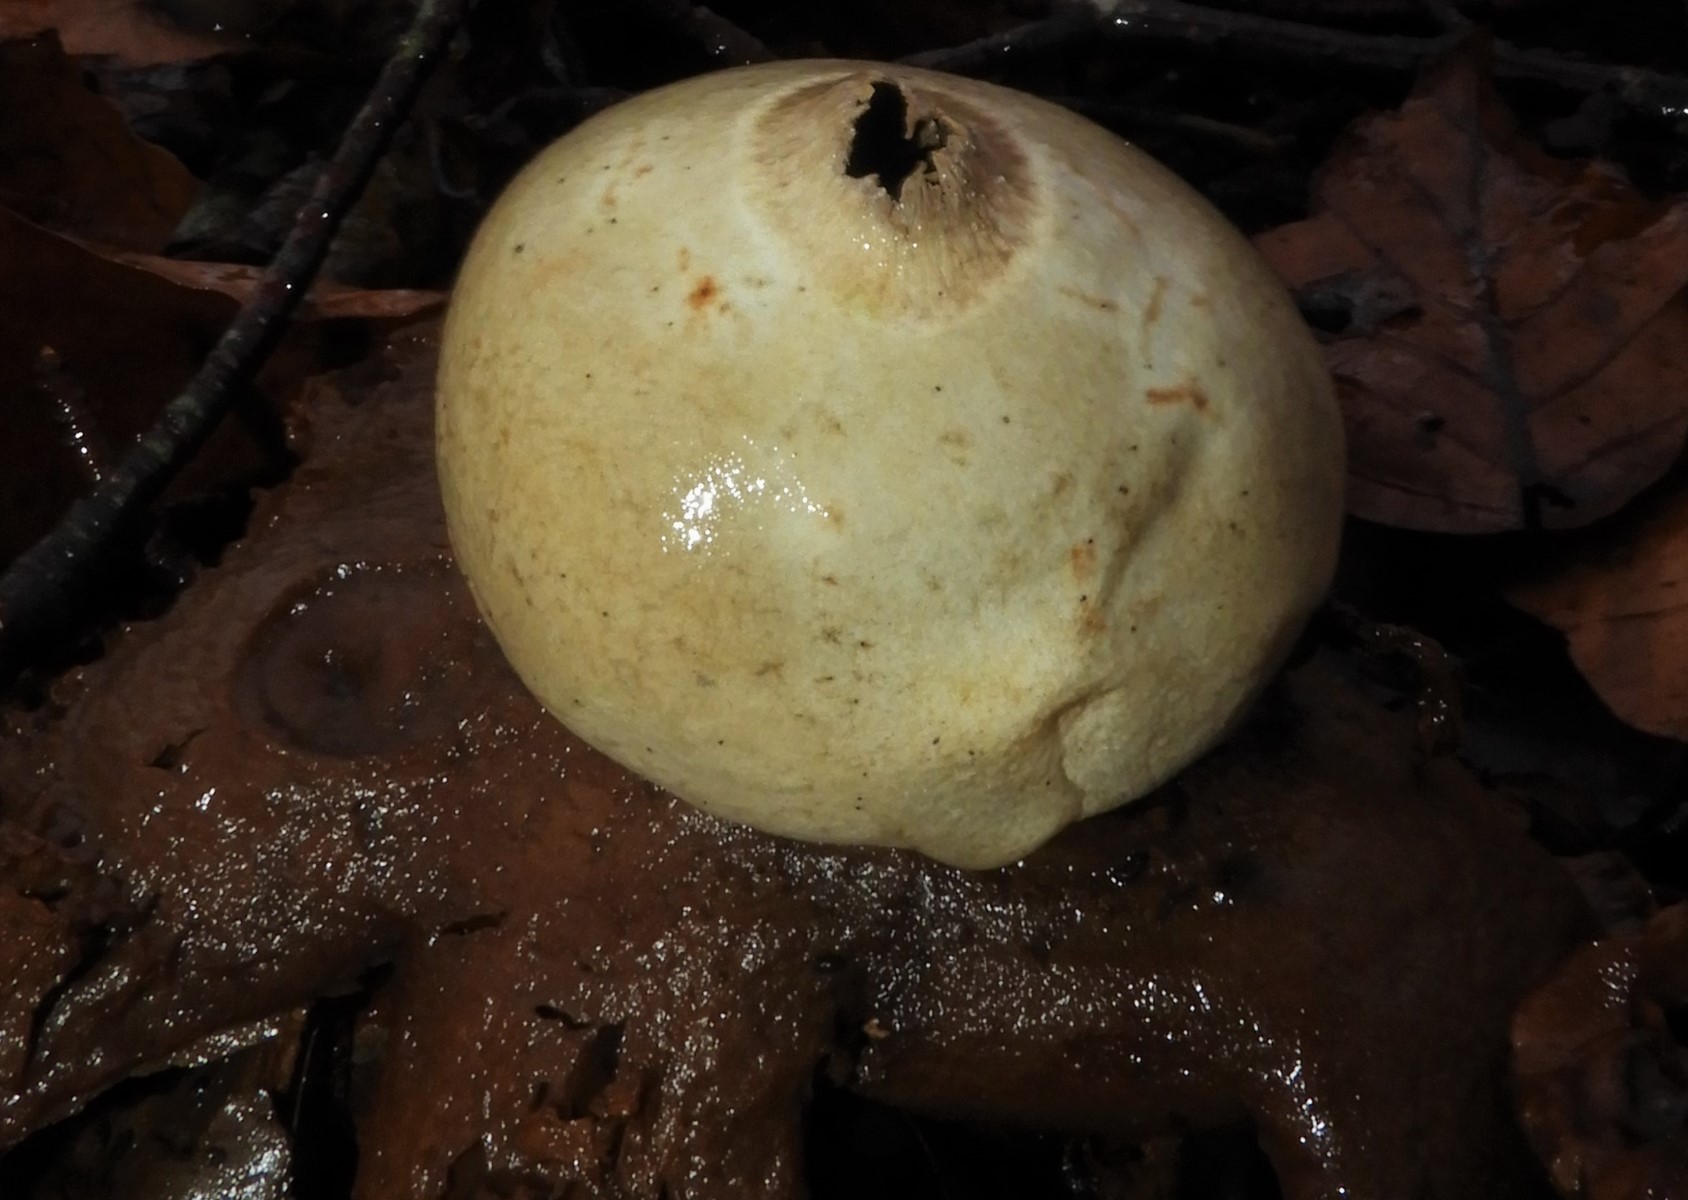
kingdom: Fungi
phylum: Basidiomycota
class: Agaricomycetes
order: Geastrales
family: Geastraceae
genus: Geastrum
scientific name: Geastrum michelianum
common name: kødet stjernebold
